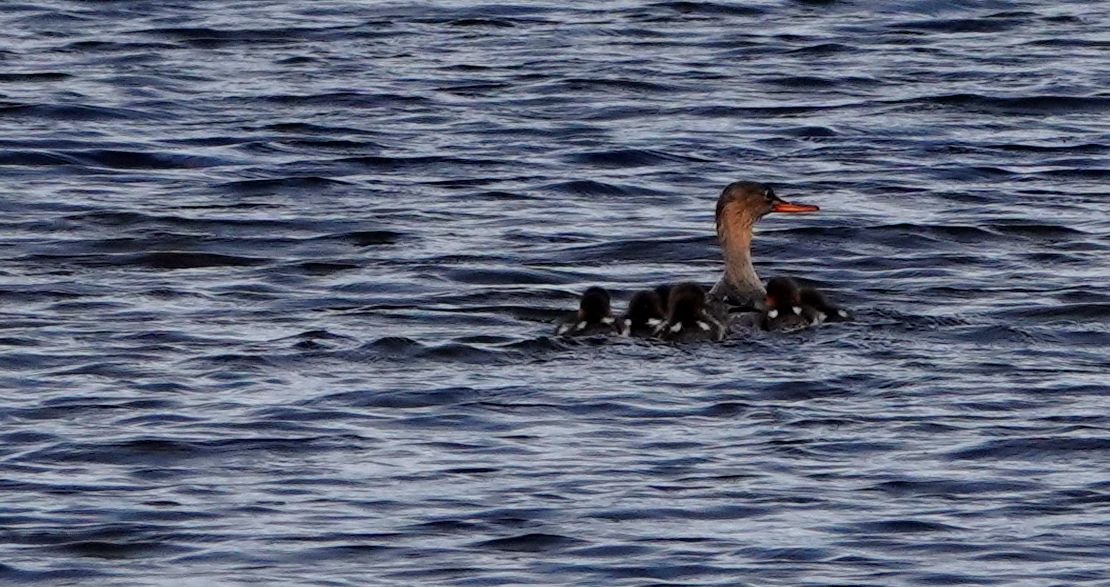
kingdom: Animalia
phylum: Chordata
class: Aves
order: Anseriformes
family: Anatidae
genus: Mergus
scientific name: Mergus serrator
